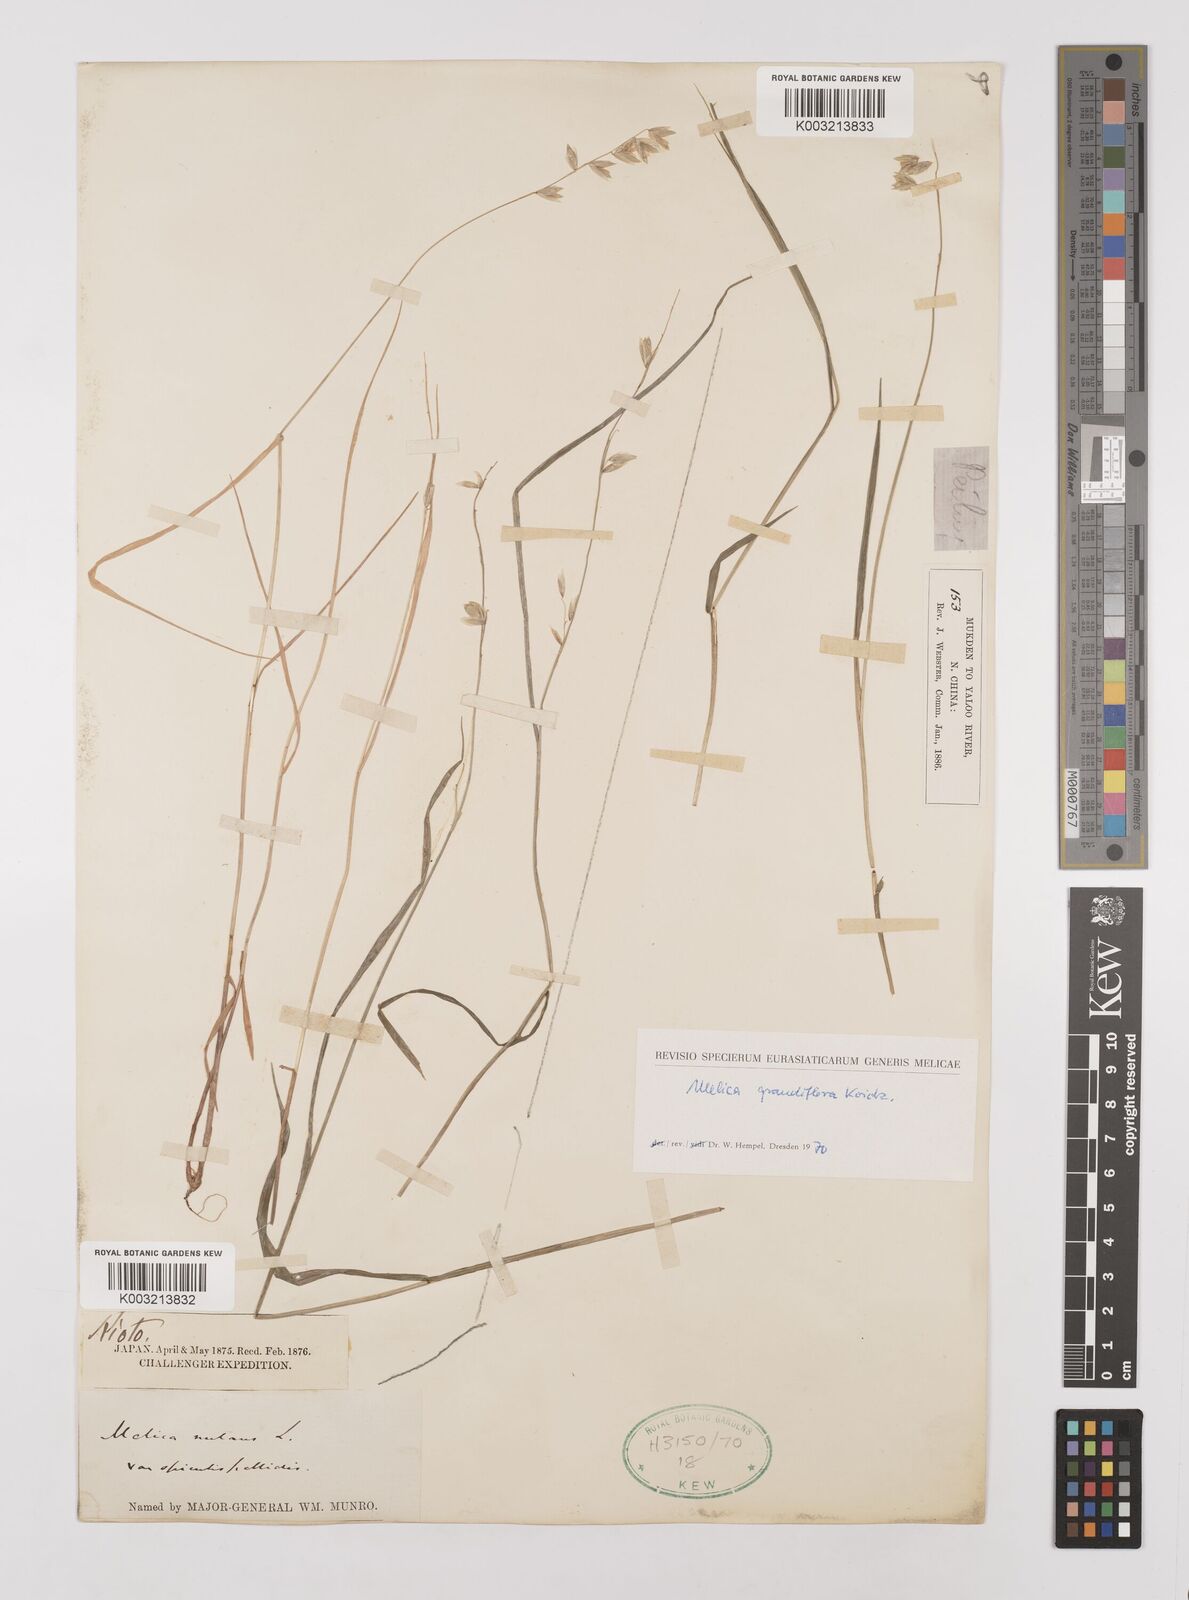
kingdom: Plantae
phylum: Tracheophyta
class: Liliopsida
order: Poales
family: Poaceae
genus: Melica
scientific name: Melica nutans
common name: Mountain melick
